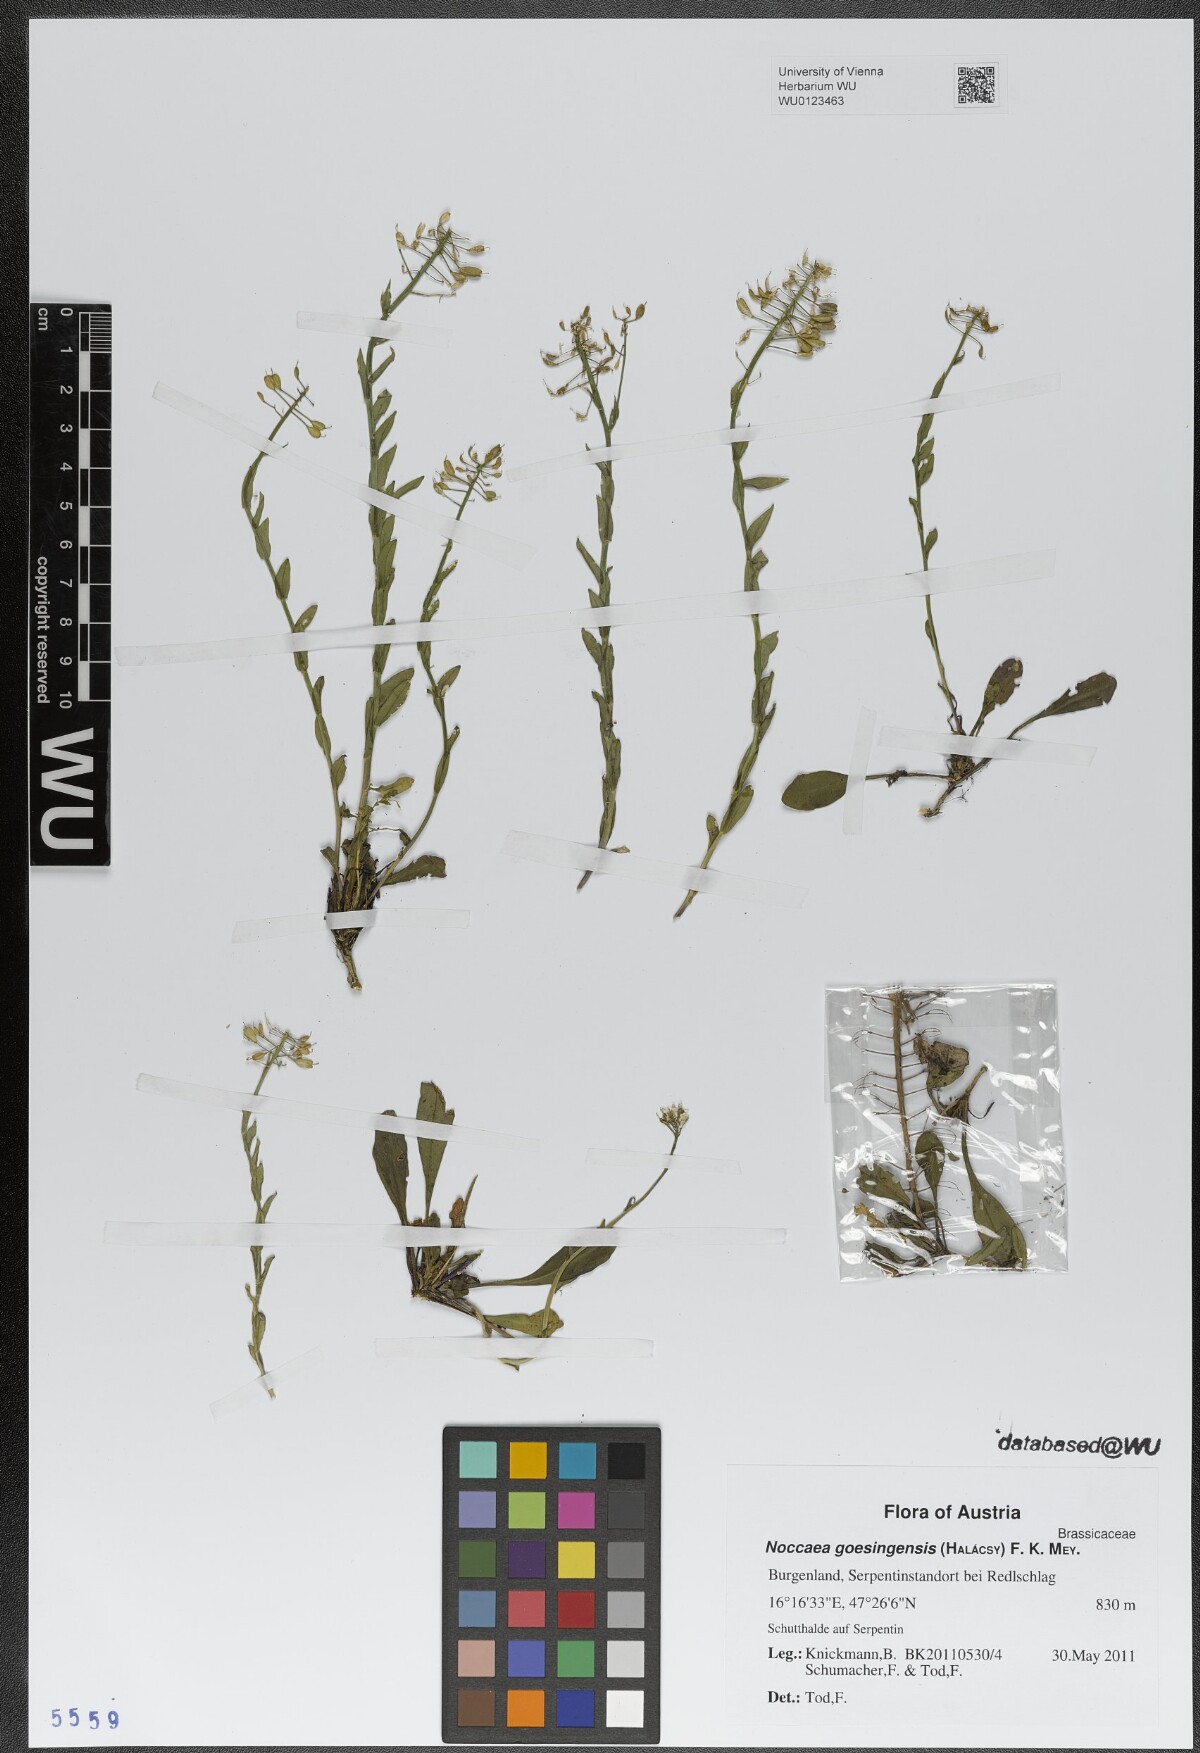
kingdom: Plantae
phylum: Tracheophyta
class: Magnoliopsida
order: Brassicales
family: Brassicaceae
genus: Noccaea
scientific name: Noccaea goesingensis
